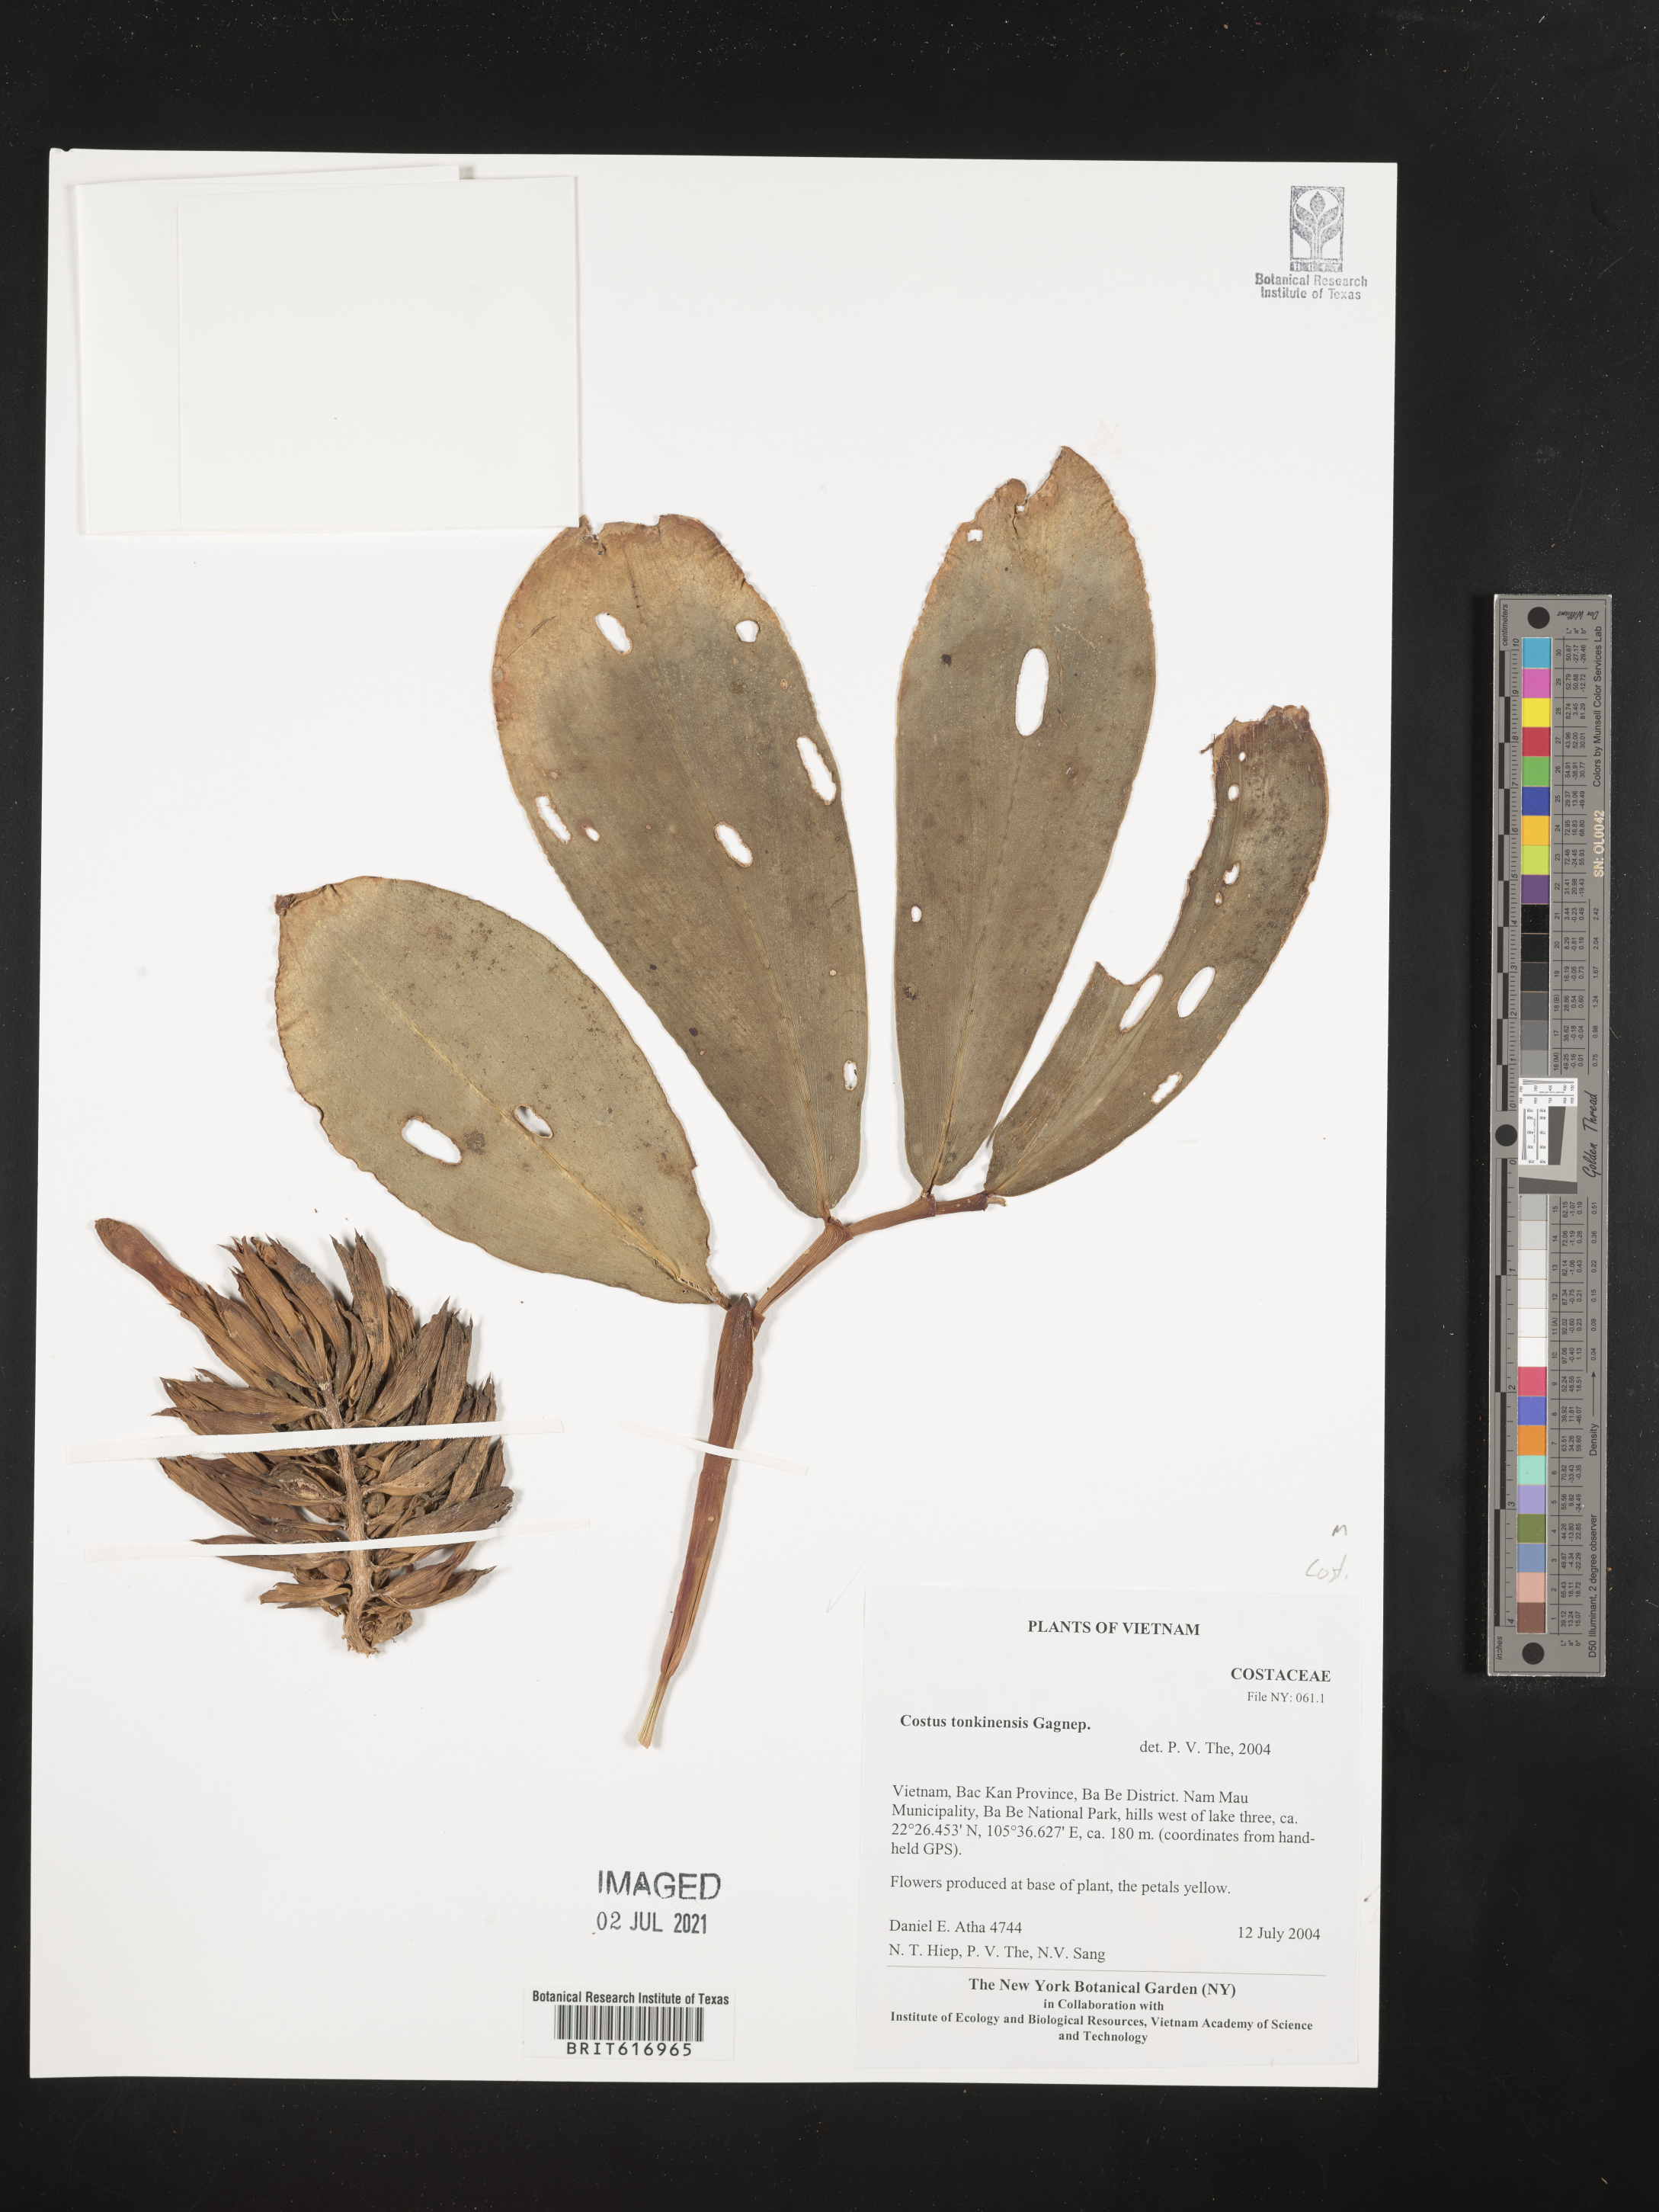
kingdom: Plantae
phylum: Tracheophyta
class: Liliopsida
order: Zingiberales
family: Costaceae
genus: Costus
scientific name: Costus tonkinensis
